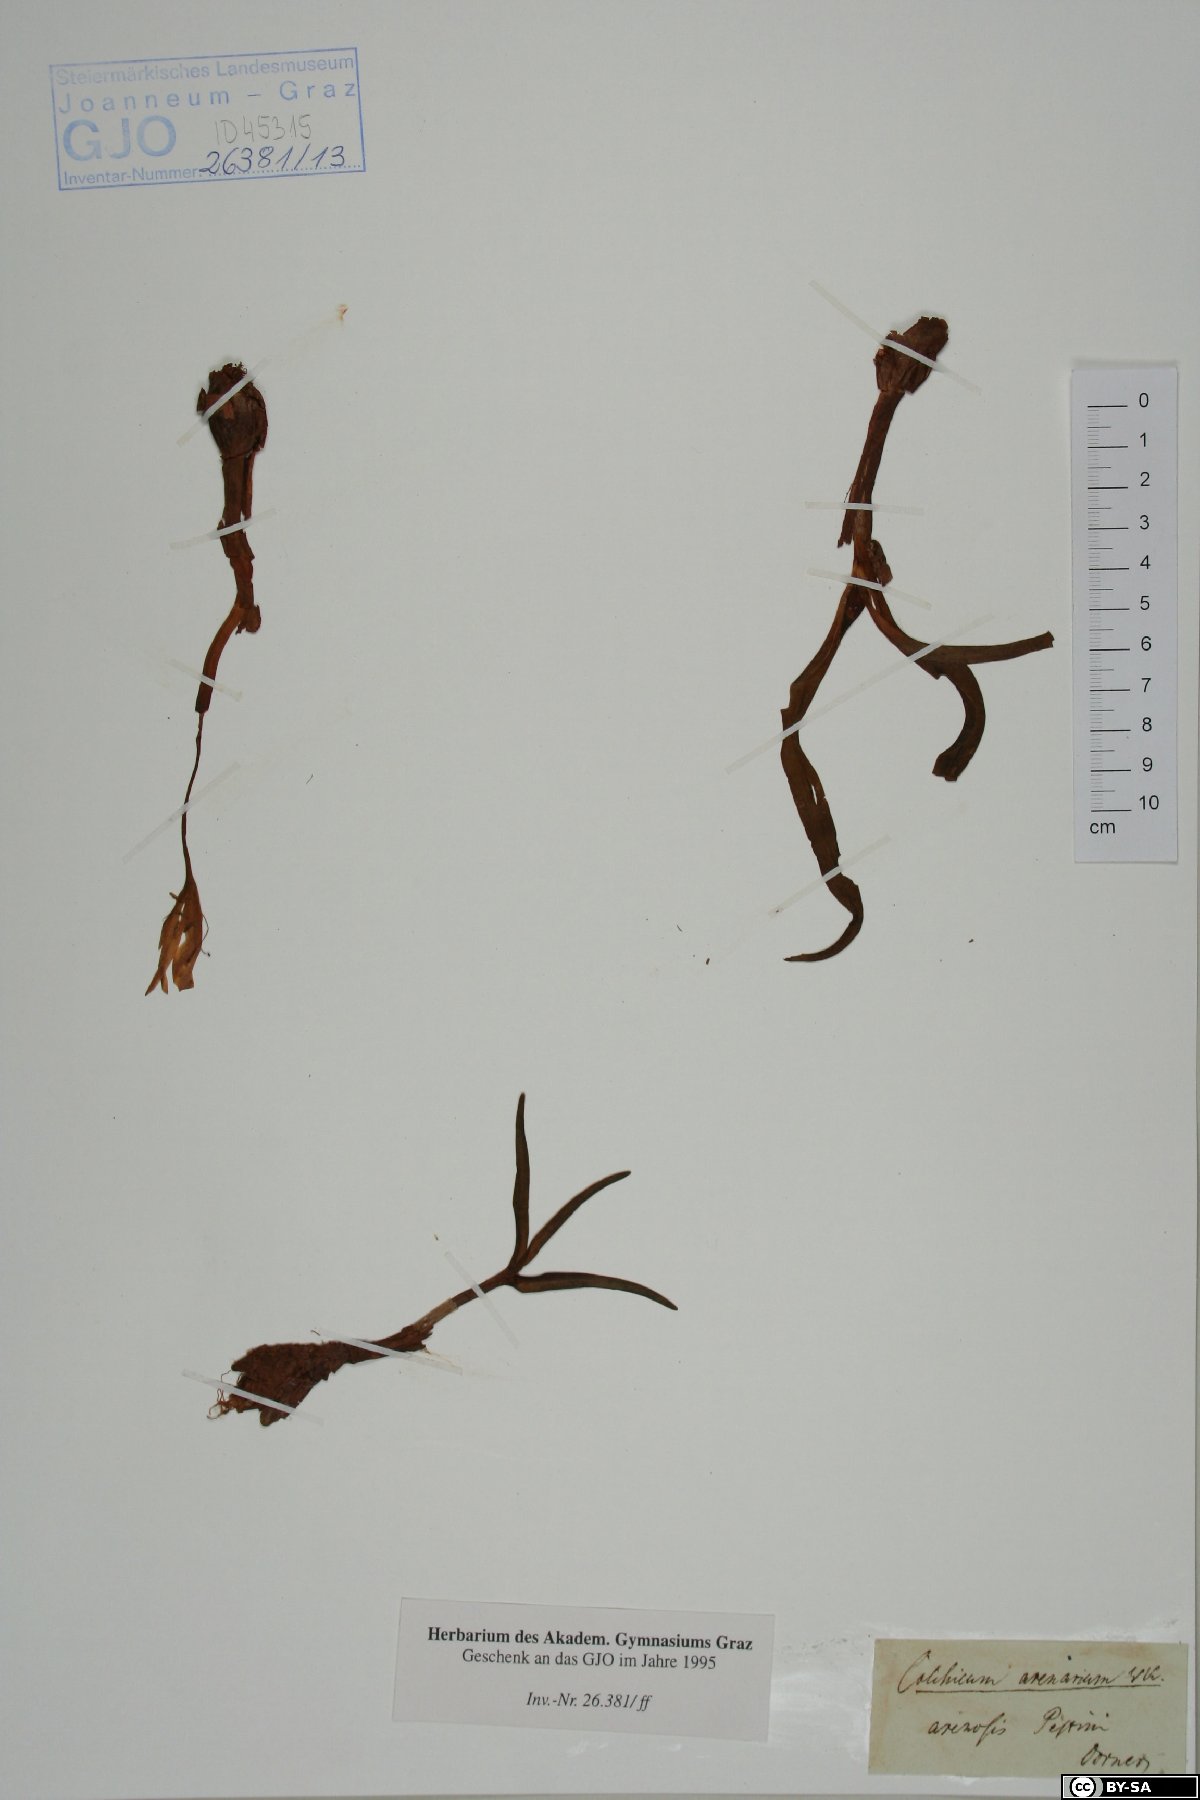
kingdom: Plantae
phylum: Tracheophyta
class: Liliopsida
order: Liliales
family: Colchicaceae
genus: Colchicum
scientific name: Colchicum arenarium
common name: Sand saffron
